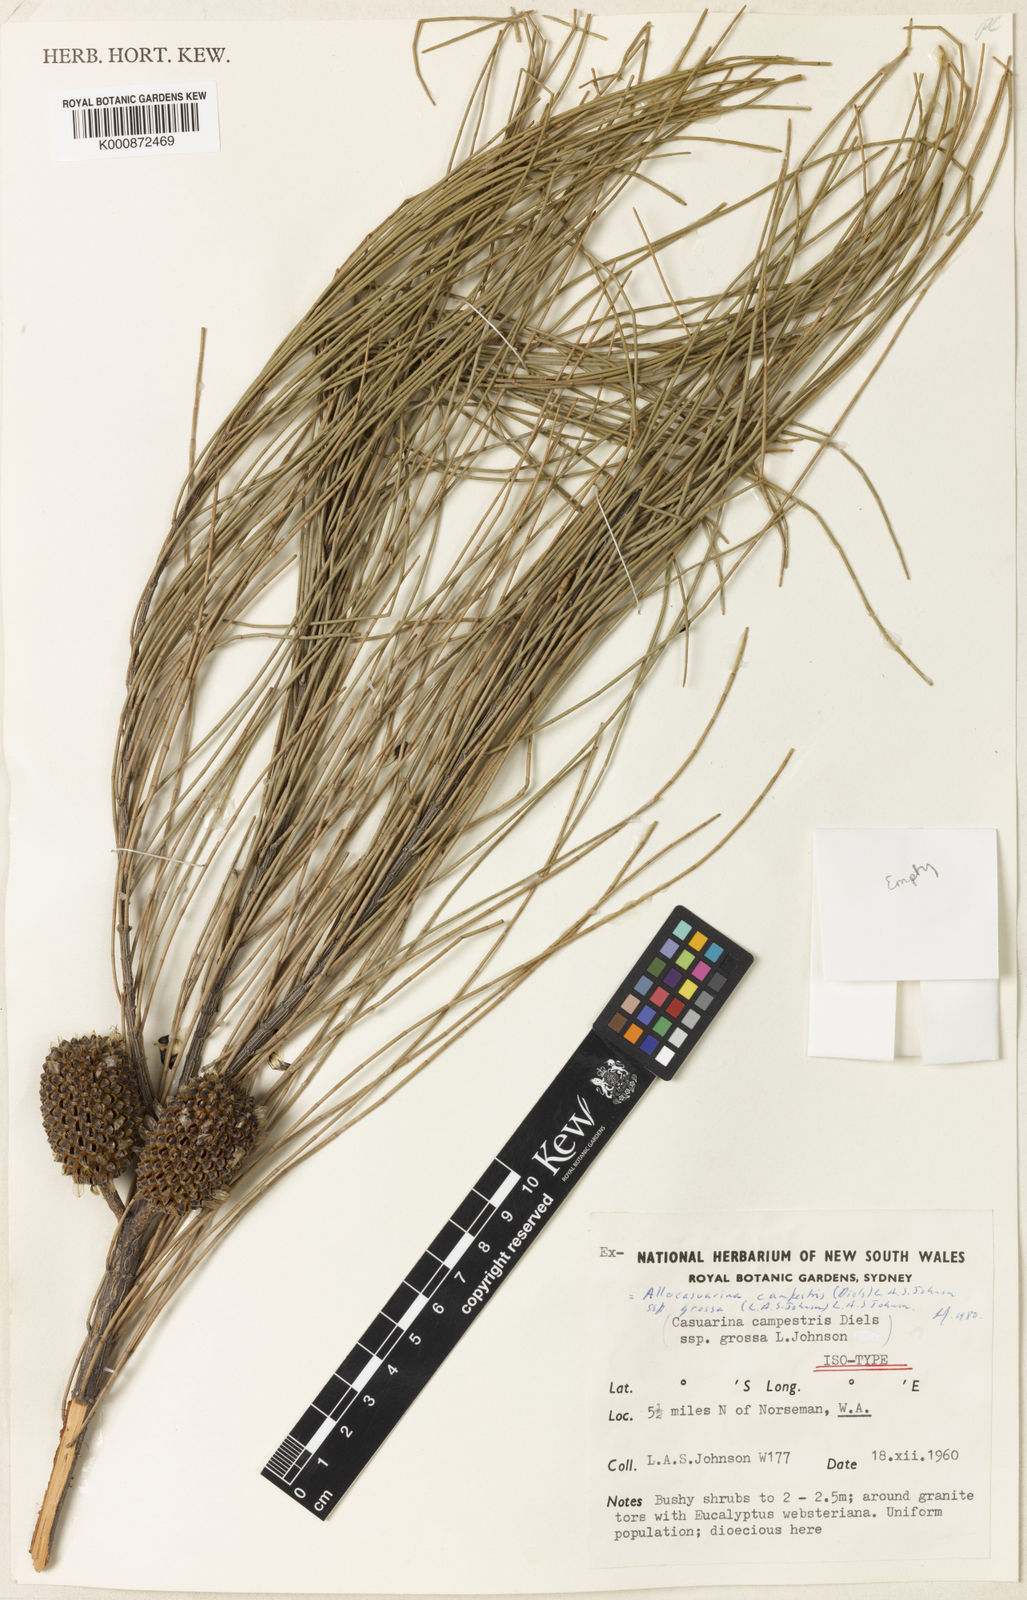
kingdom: Plantae
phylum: Tracheophyta
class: Magnoliopsida
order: Fagales
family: Casuarinaceae
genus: Allocasuarina
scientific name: Allocasuarina eriochlamys
